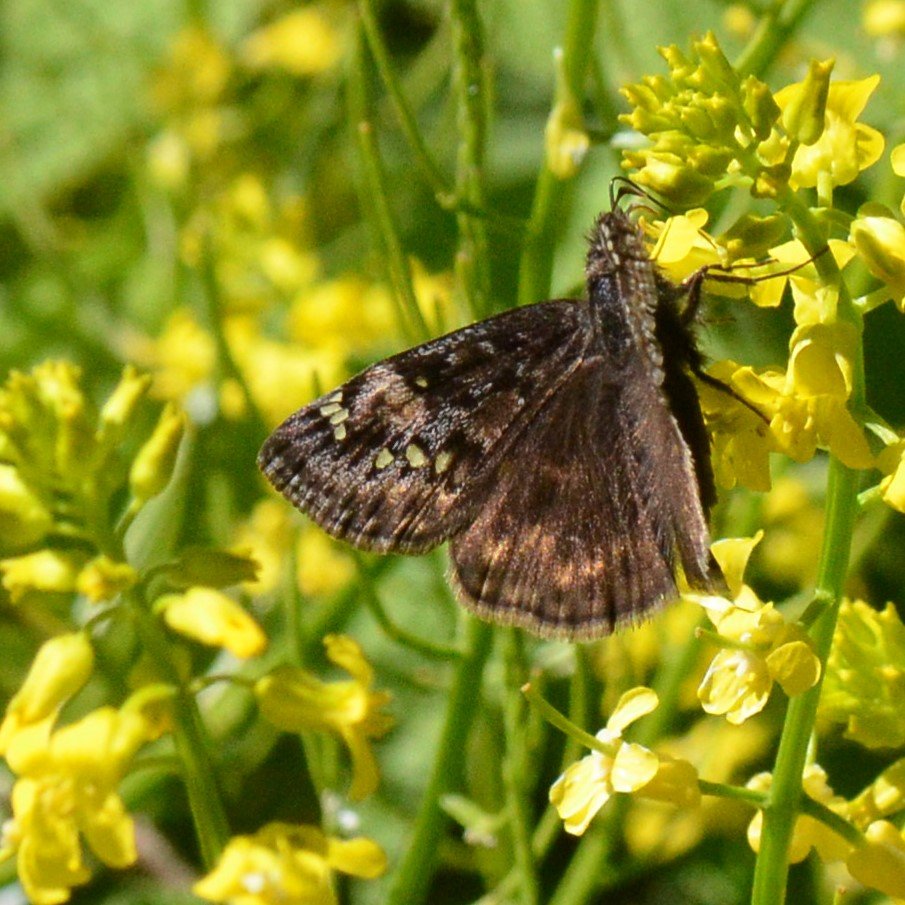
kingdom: Animalia
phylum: Arthropoda
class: Insecta
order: Lepidoptera
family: Hesperiidae
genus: Gesta
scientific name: Gesta
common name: Columbine Duskywing
